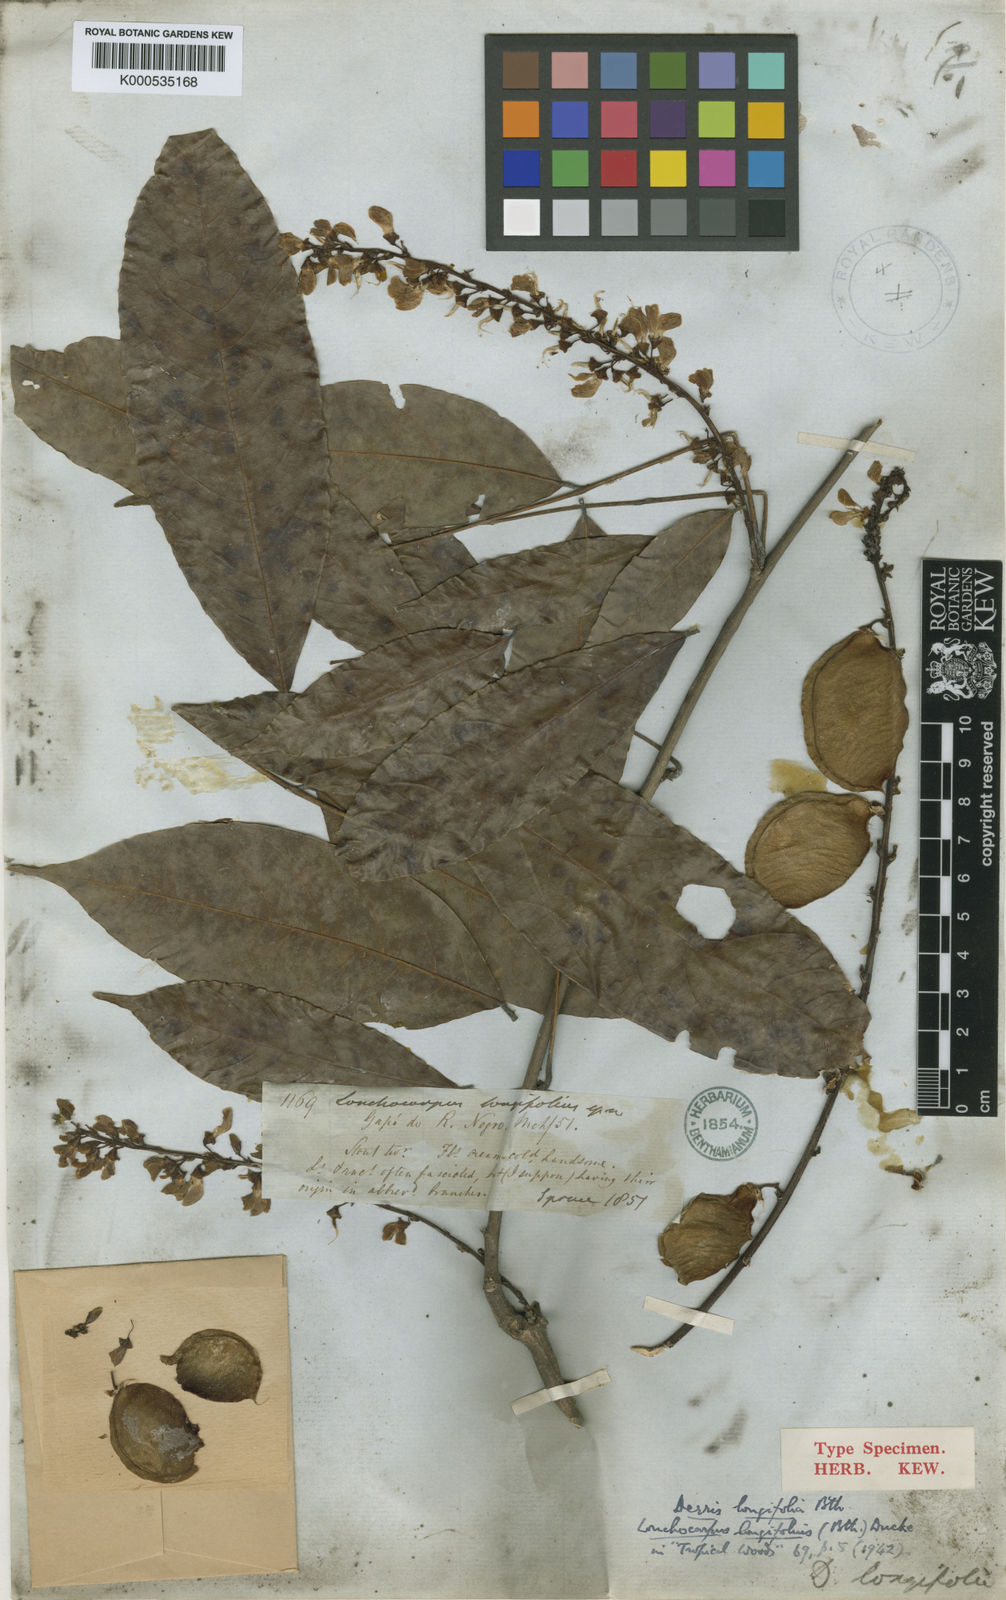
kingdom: Plantae
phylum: Tracheophyta
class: Magnoliopsida
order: Fabales
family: Fabaceae
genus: Deguelia
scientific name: Deguelia negrensis
